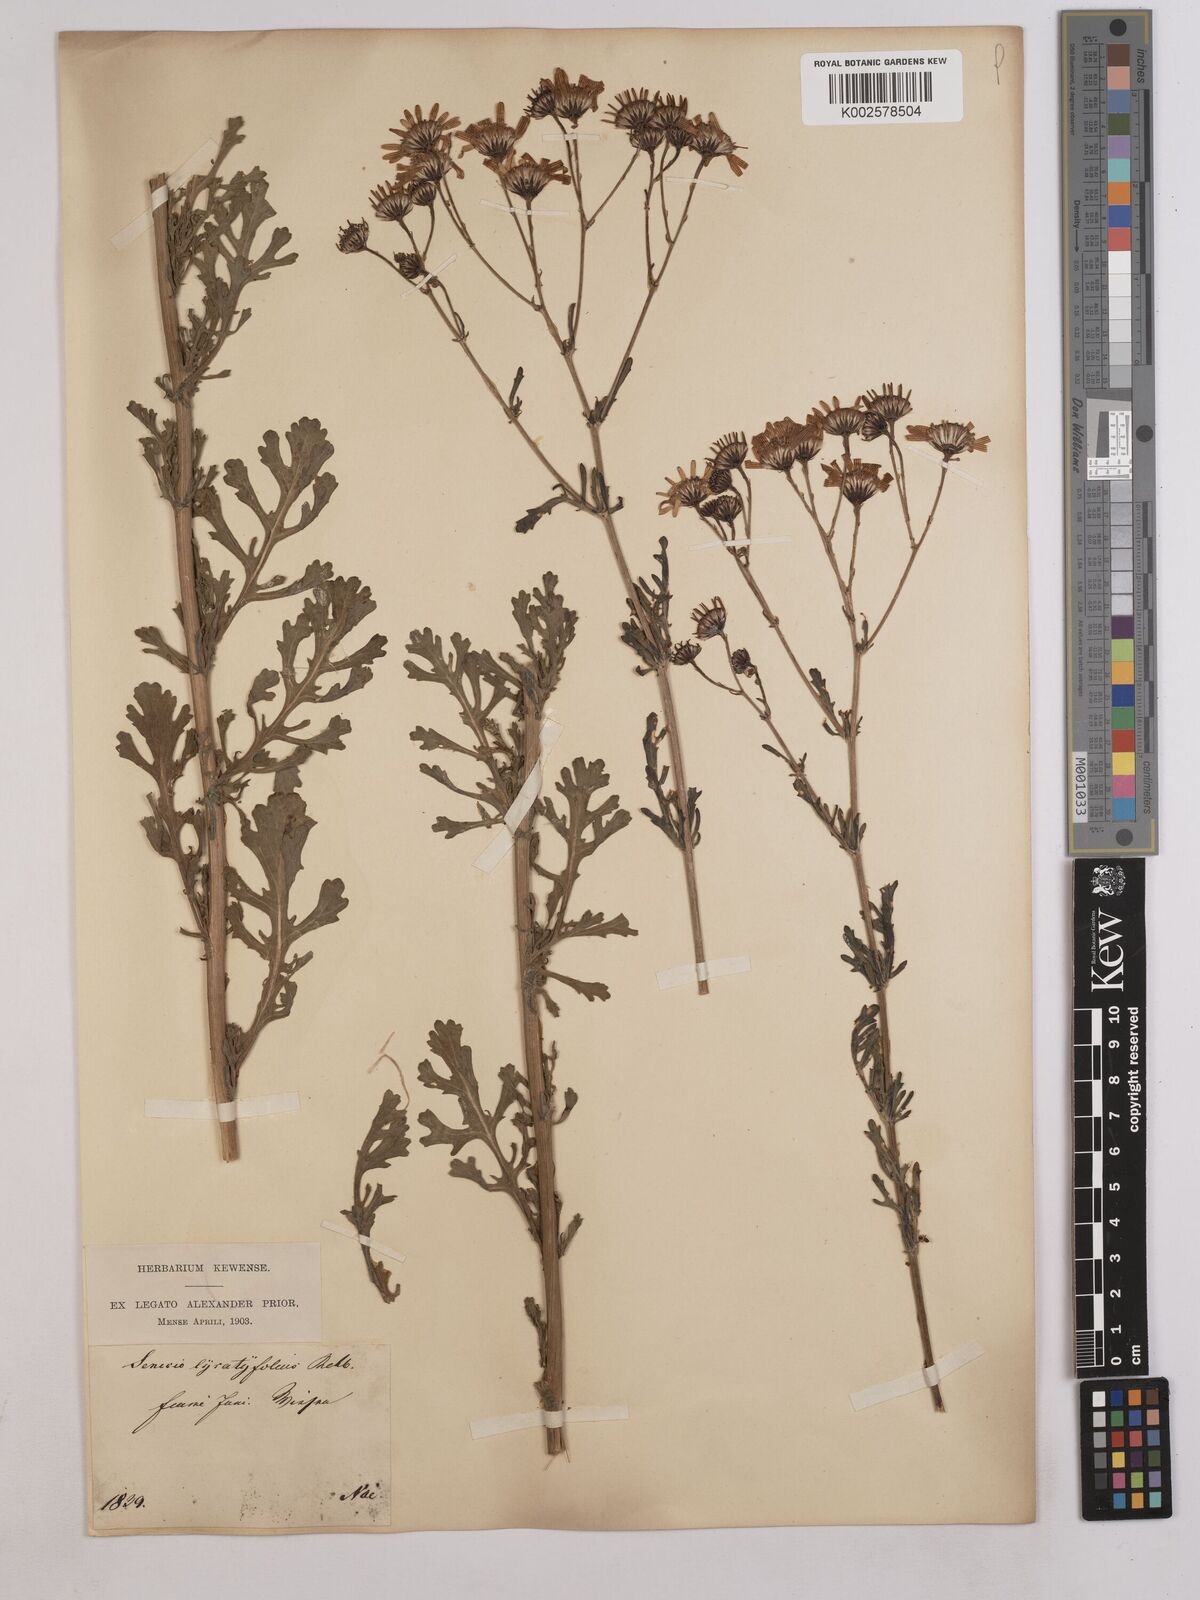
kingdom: Plantae
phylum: Tracheophyta
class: Magnoliopsida
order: Asterales
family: Asteraceae
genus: Jacobaea
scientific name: Jacobaea vulgaris
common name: Stinking willie
